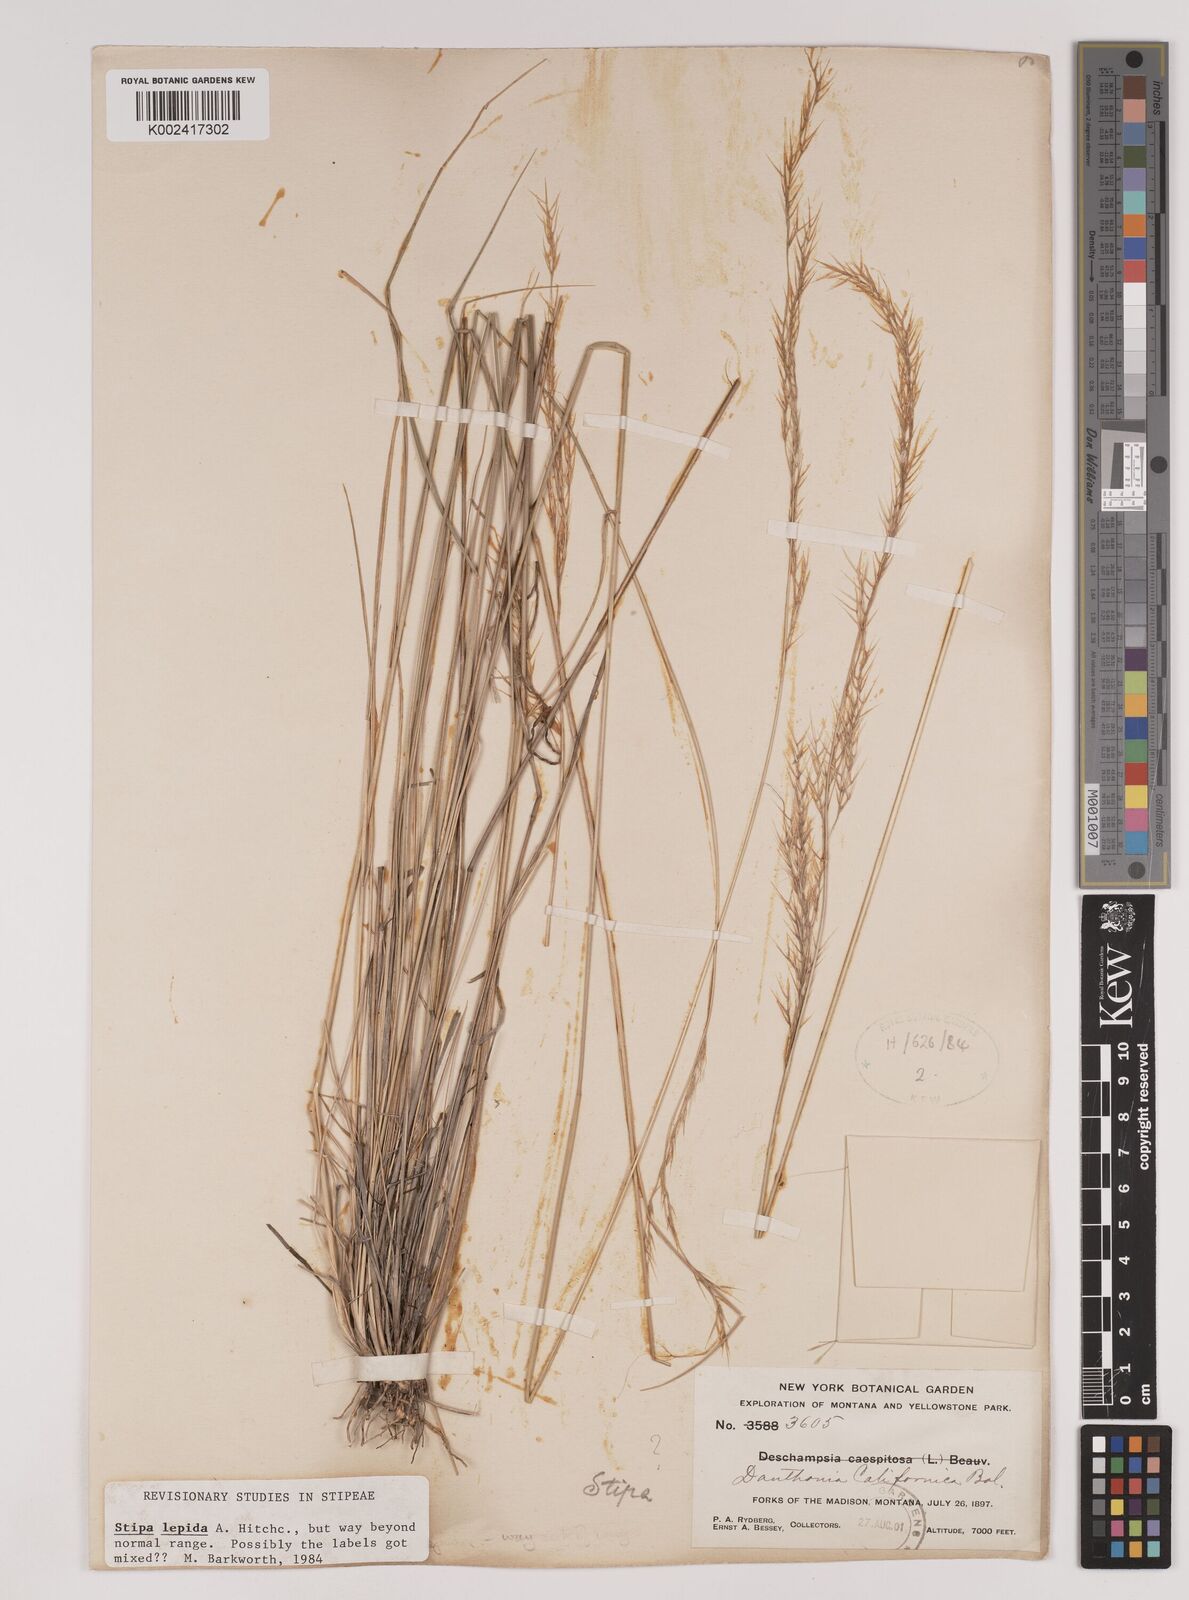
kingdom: Plantae
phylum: Tracheophyta
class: Liliopsida
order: Poales
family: Poaceae
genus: Nassella
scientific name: Nassella lepida
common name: Foothill needlegrass
